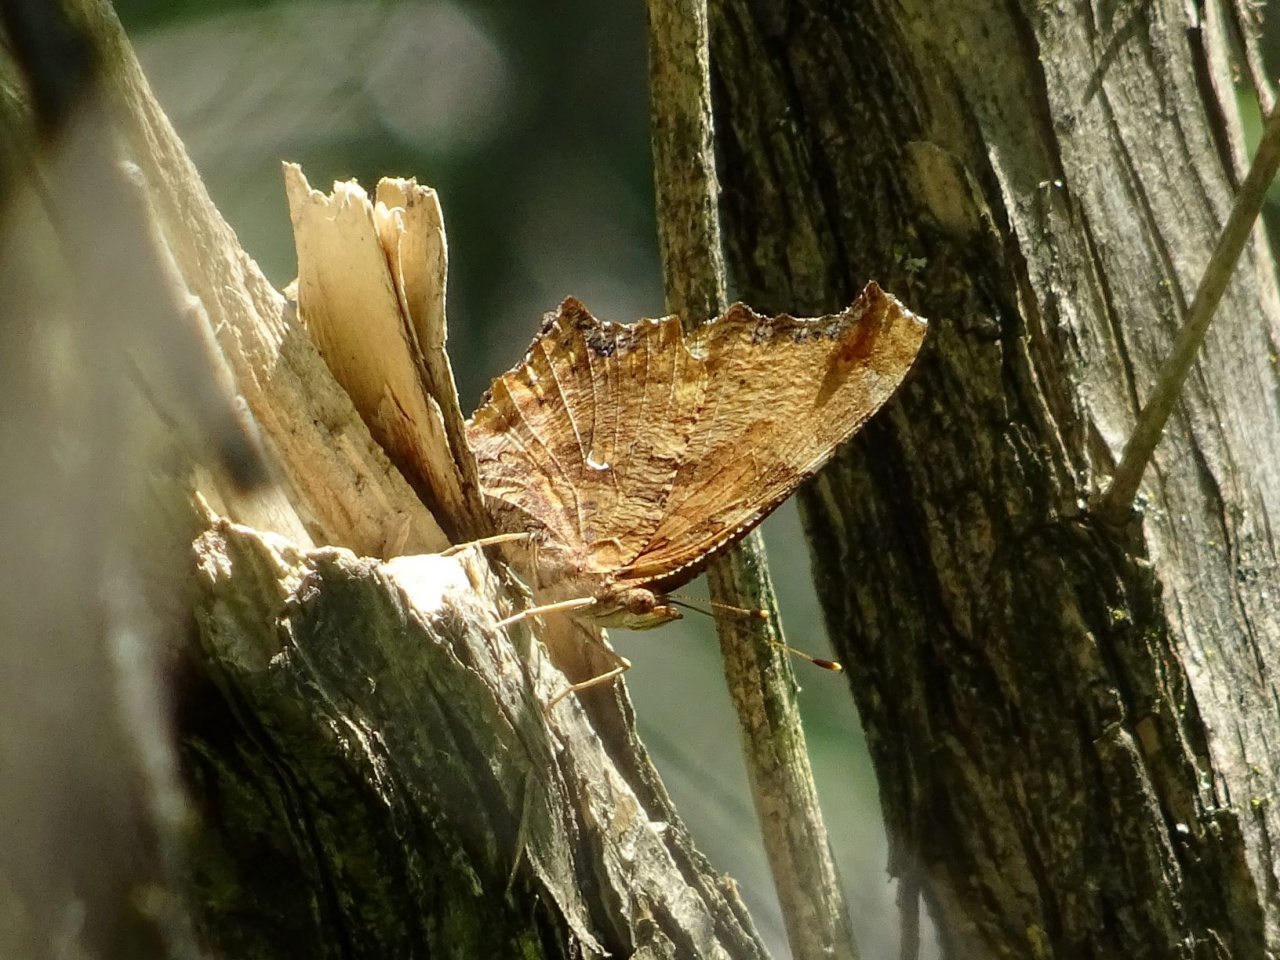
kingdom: Animalia
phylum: Arthropoda
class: Insecta
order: Lepidoptera
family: Nymphalidae
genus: Polygonia
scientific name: Polygonia comma
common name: Eastern Comma
